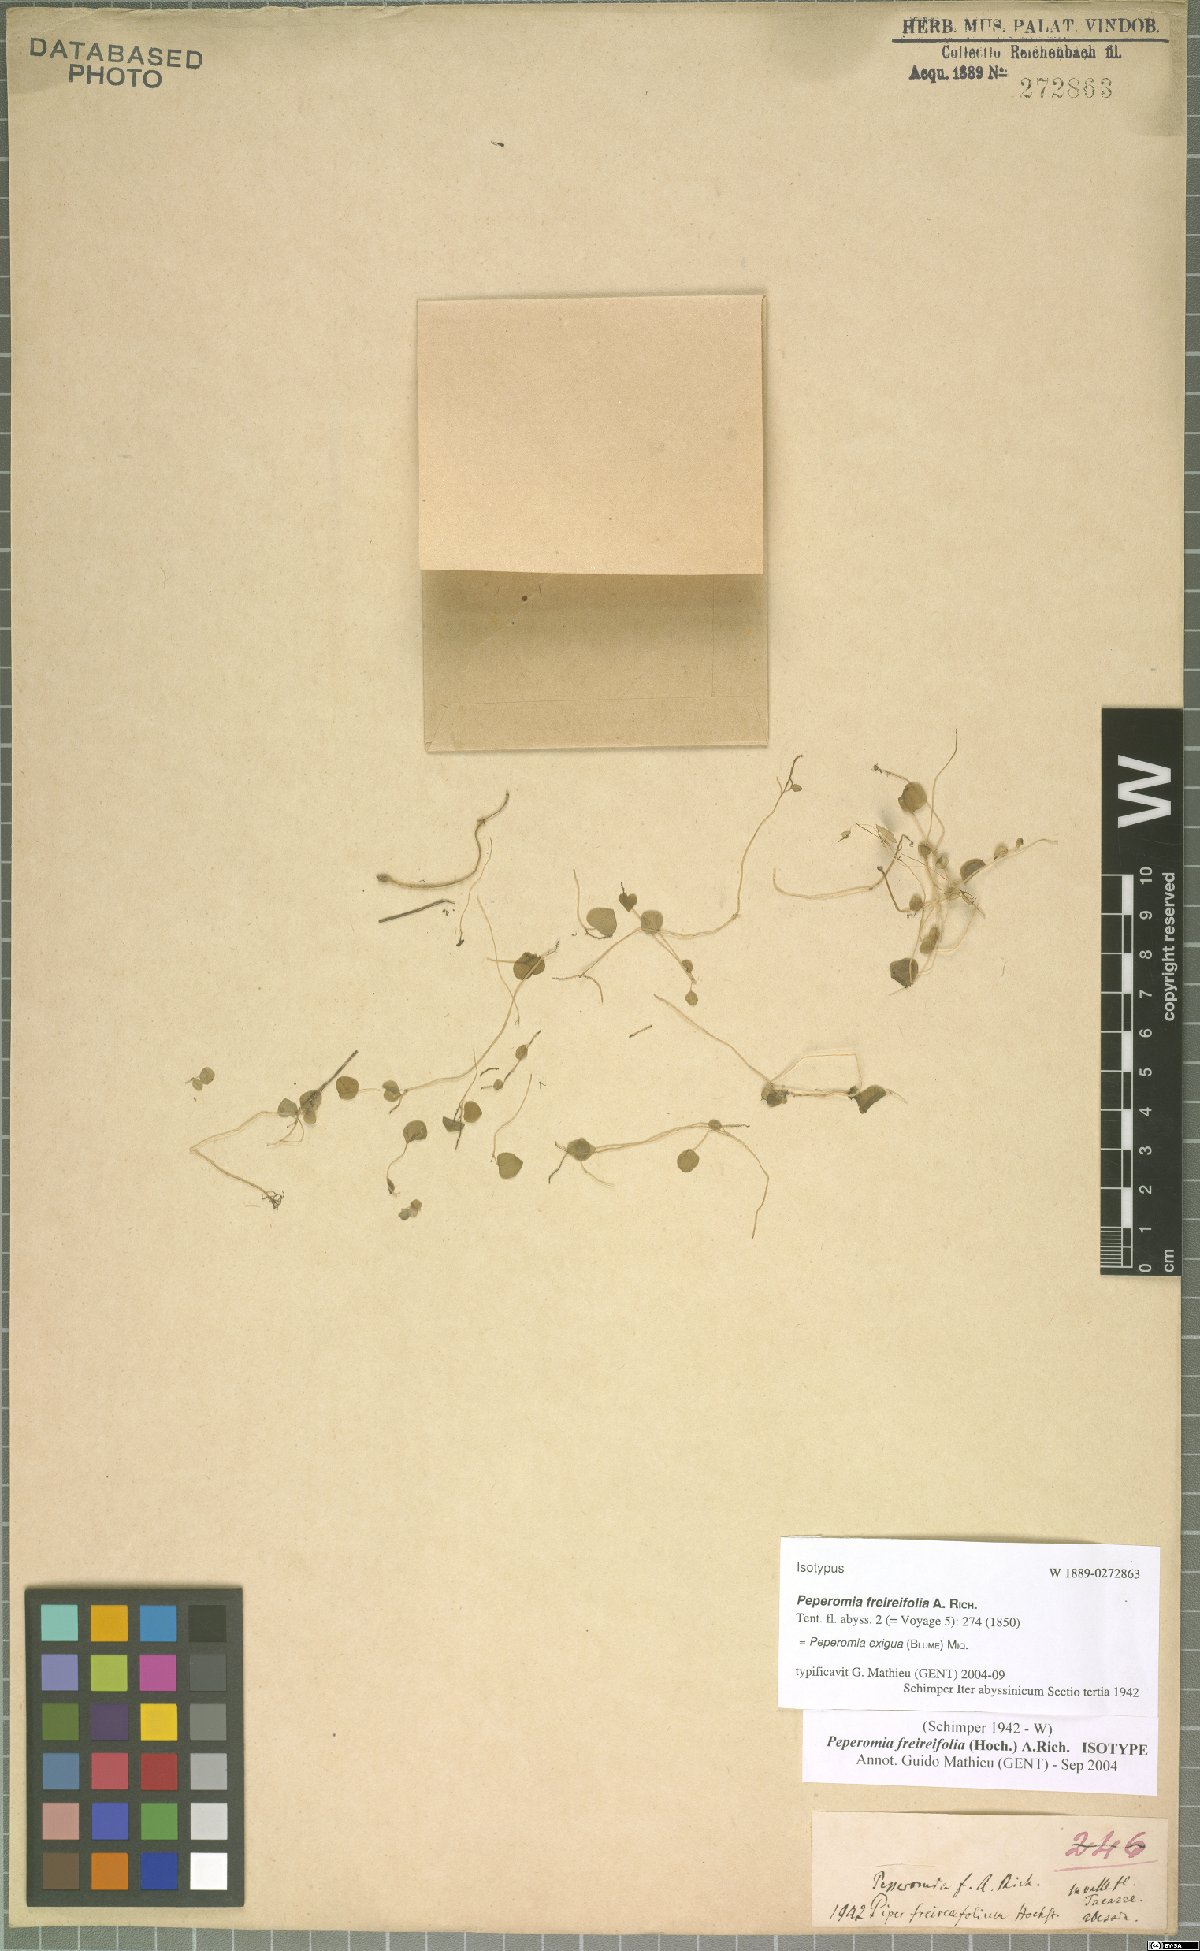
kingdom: Plantae
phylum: Tracheophyta
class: Magnoliopsida
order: Piperales
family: Piperaceae
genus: Peperomia
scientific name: Peperomia pellucida
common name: Man to man
